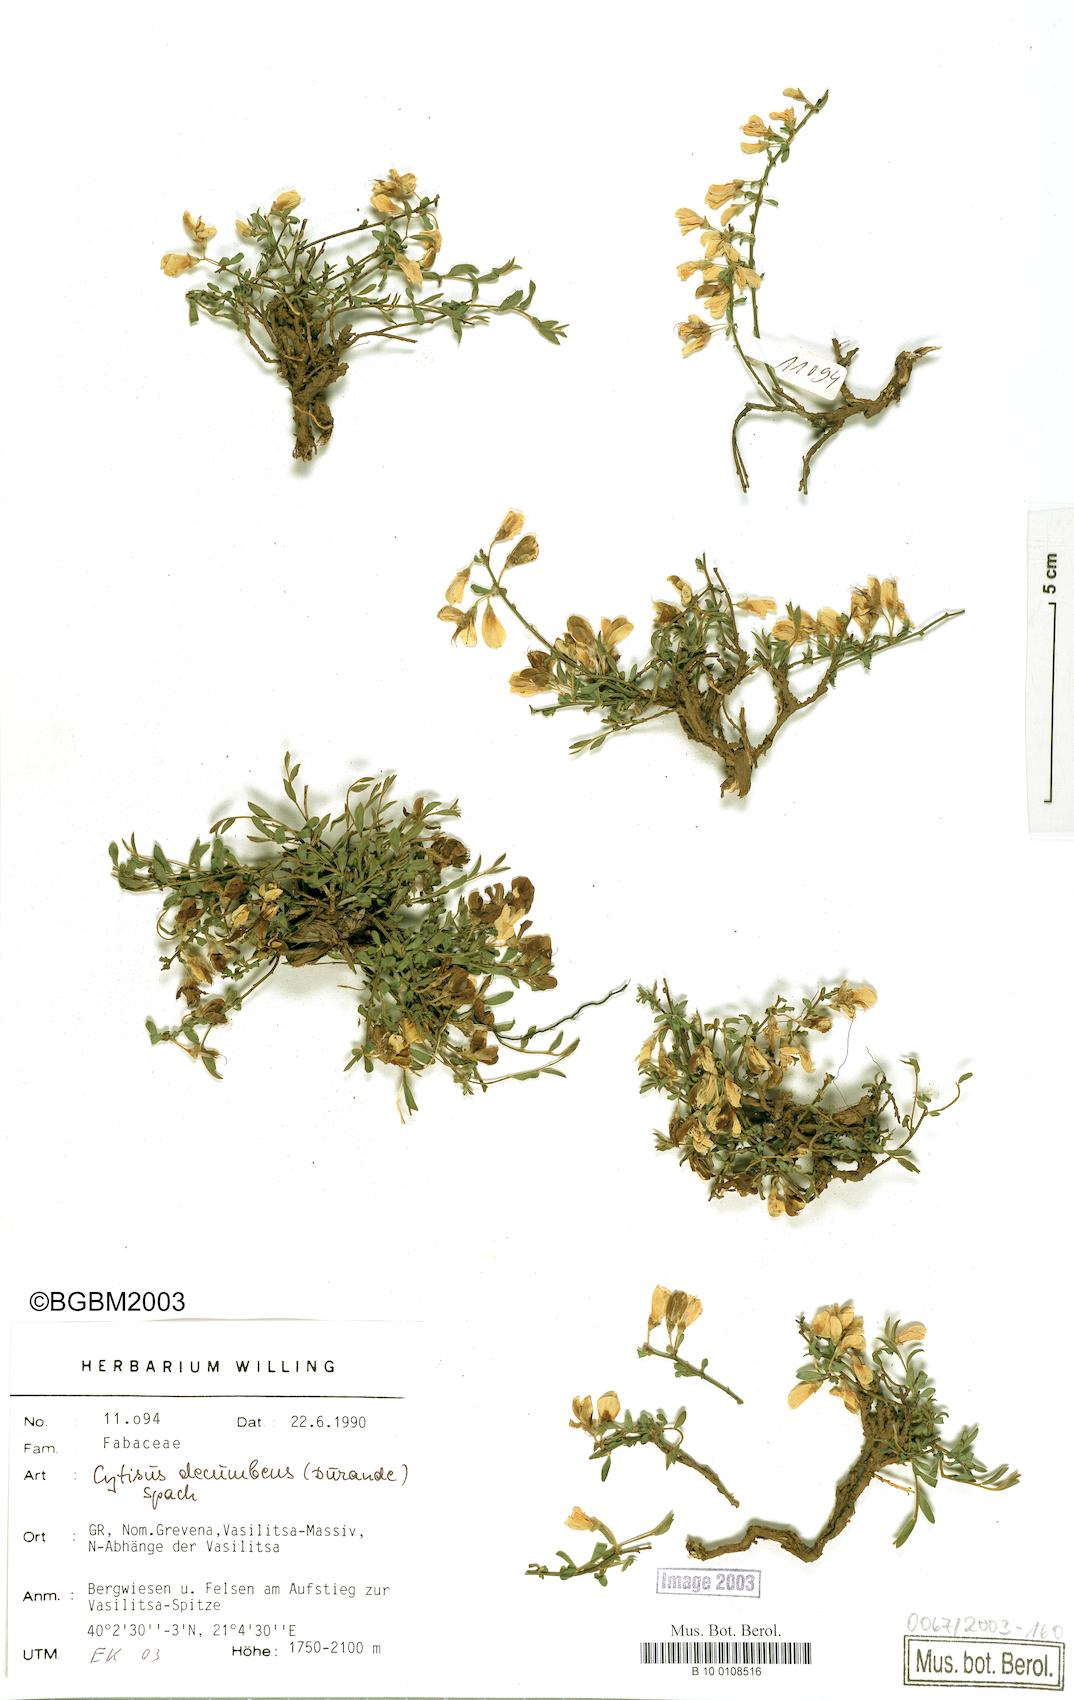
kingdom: Plantae
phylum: Tracheophyta
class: Magnoliopsida
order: Fabales
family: Fabaceae
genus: Cytisus
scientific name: Cytisus decumbens
